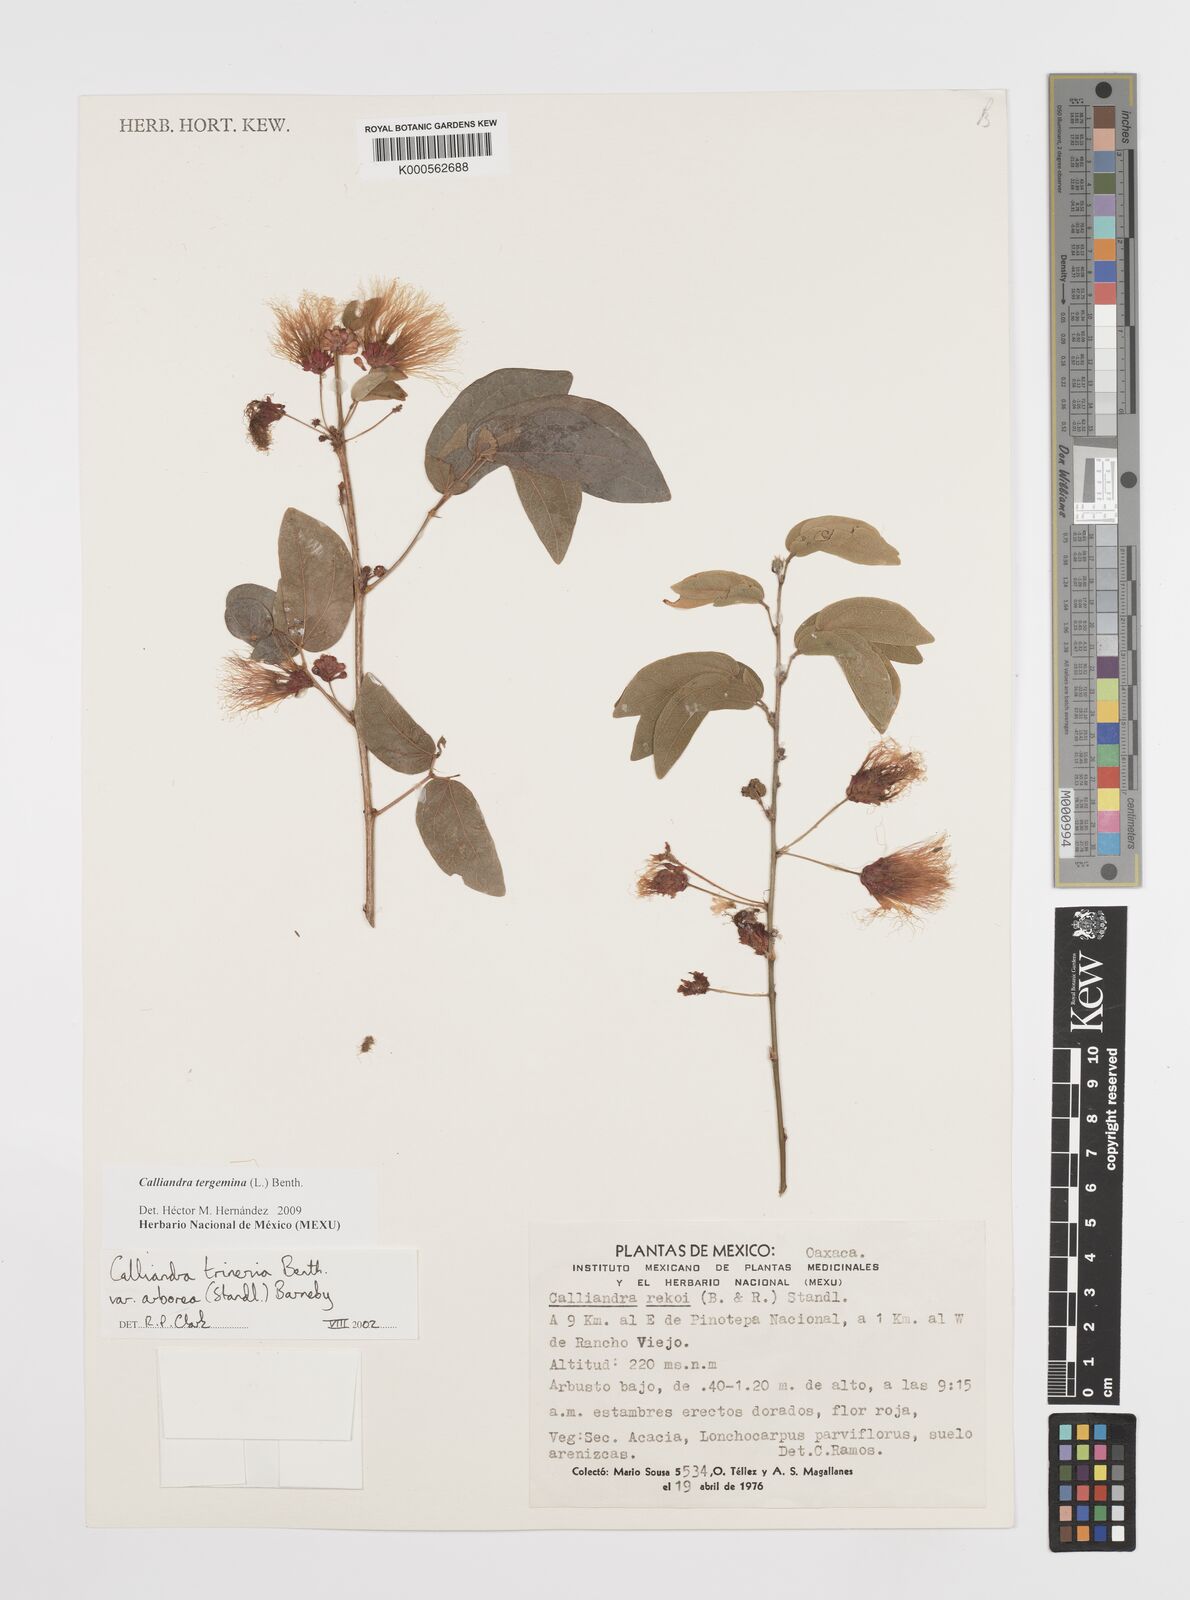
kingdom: Plantae
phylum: Tracheophyta
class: Magnoliopsida
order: Fabales
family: Fabaceae
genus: Calliandra
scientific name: Calliandra tergemina
